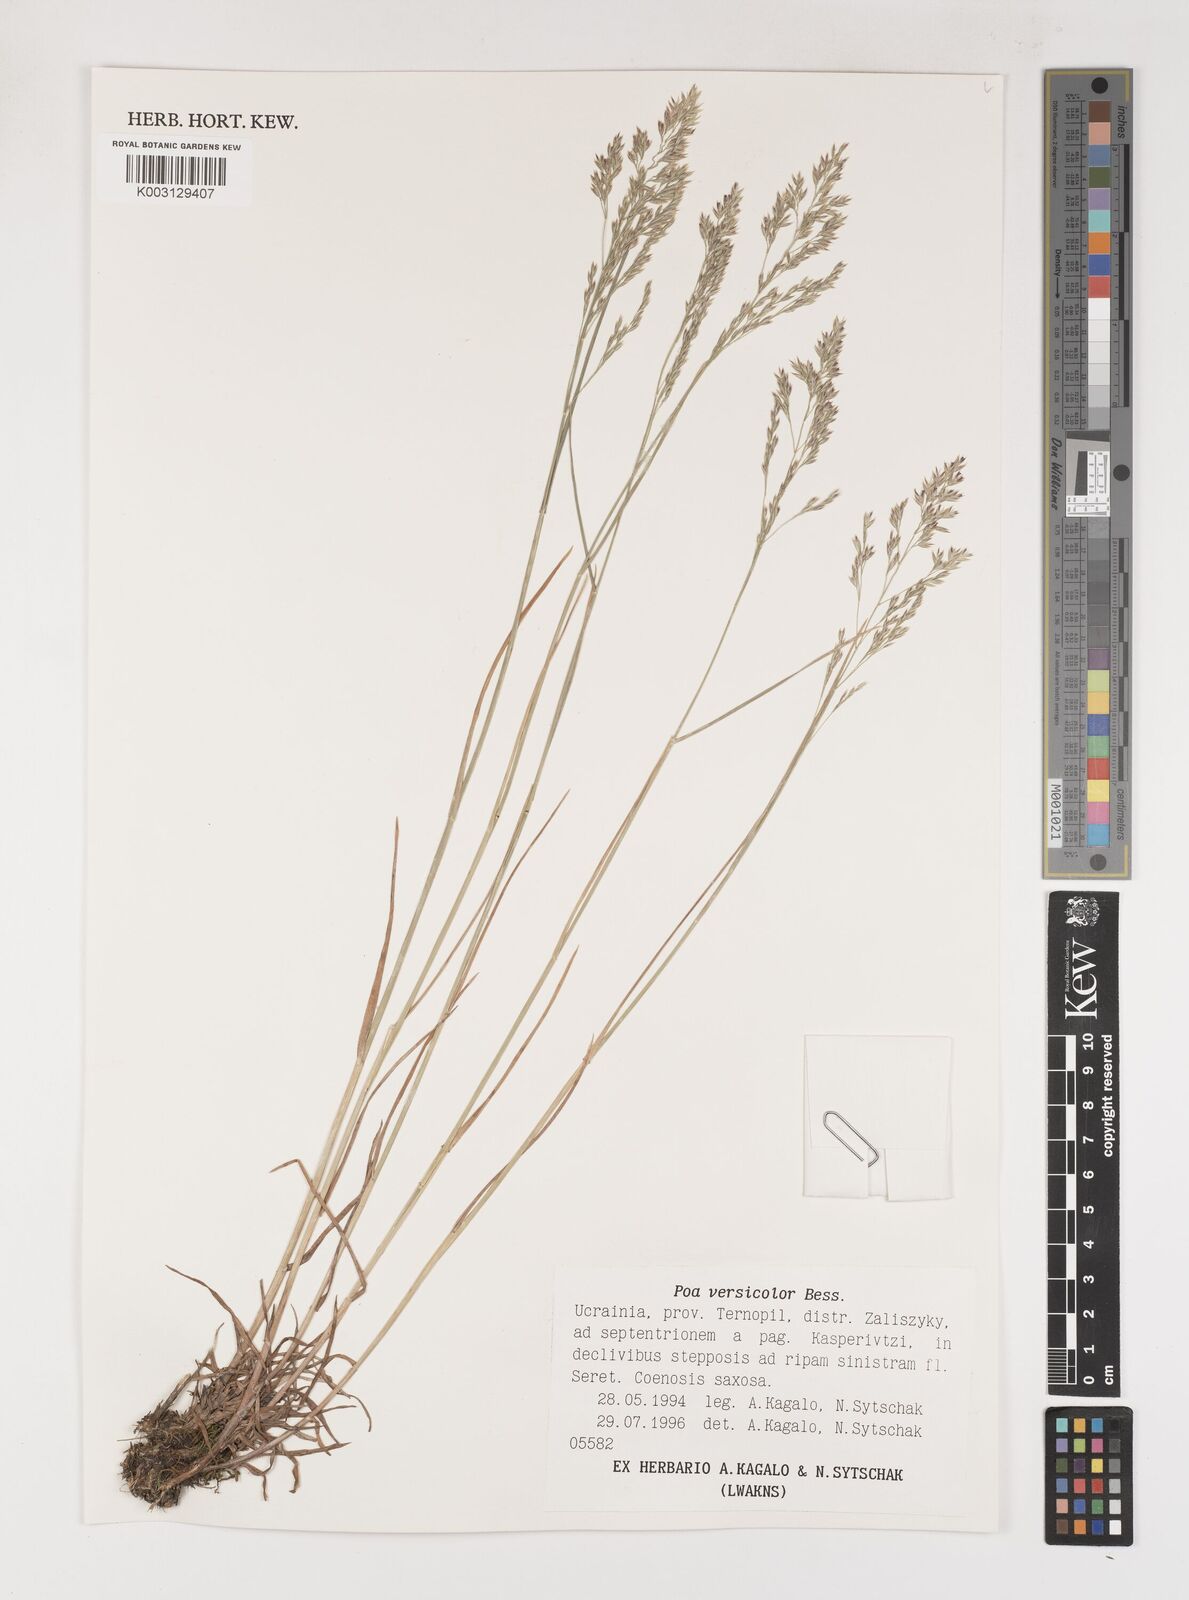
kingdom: Plantae
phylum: Tracheophyta
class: Liliopsida
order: Poales
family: Poaceae
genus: Poa
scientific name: Poa versicolor
